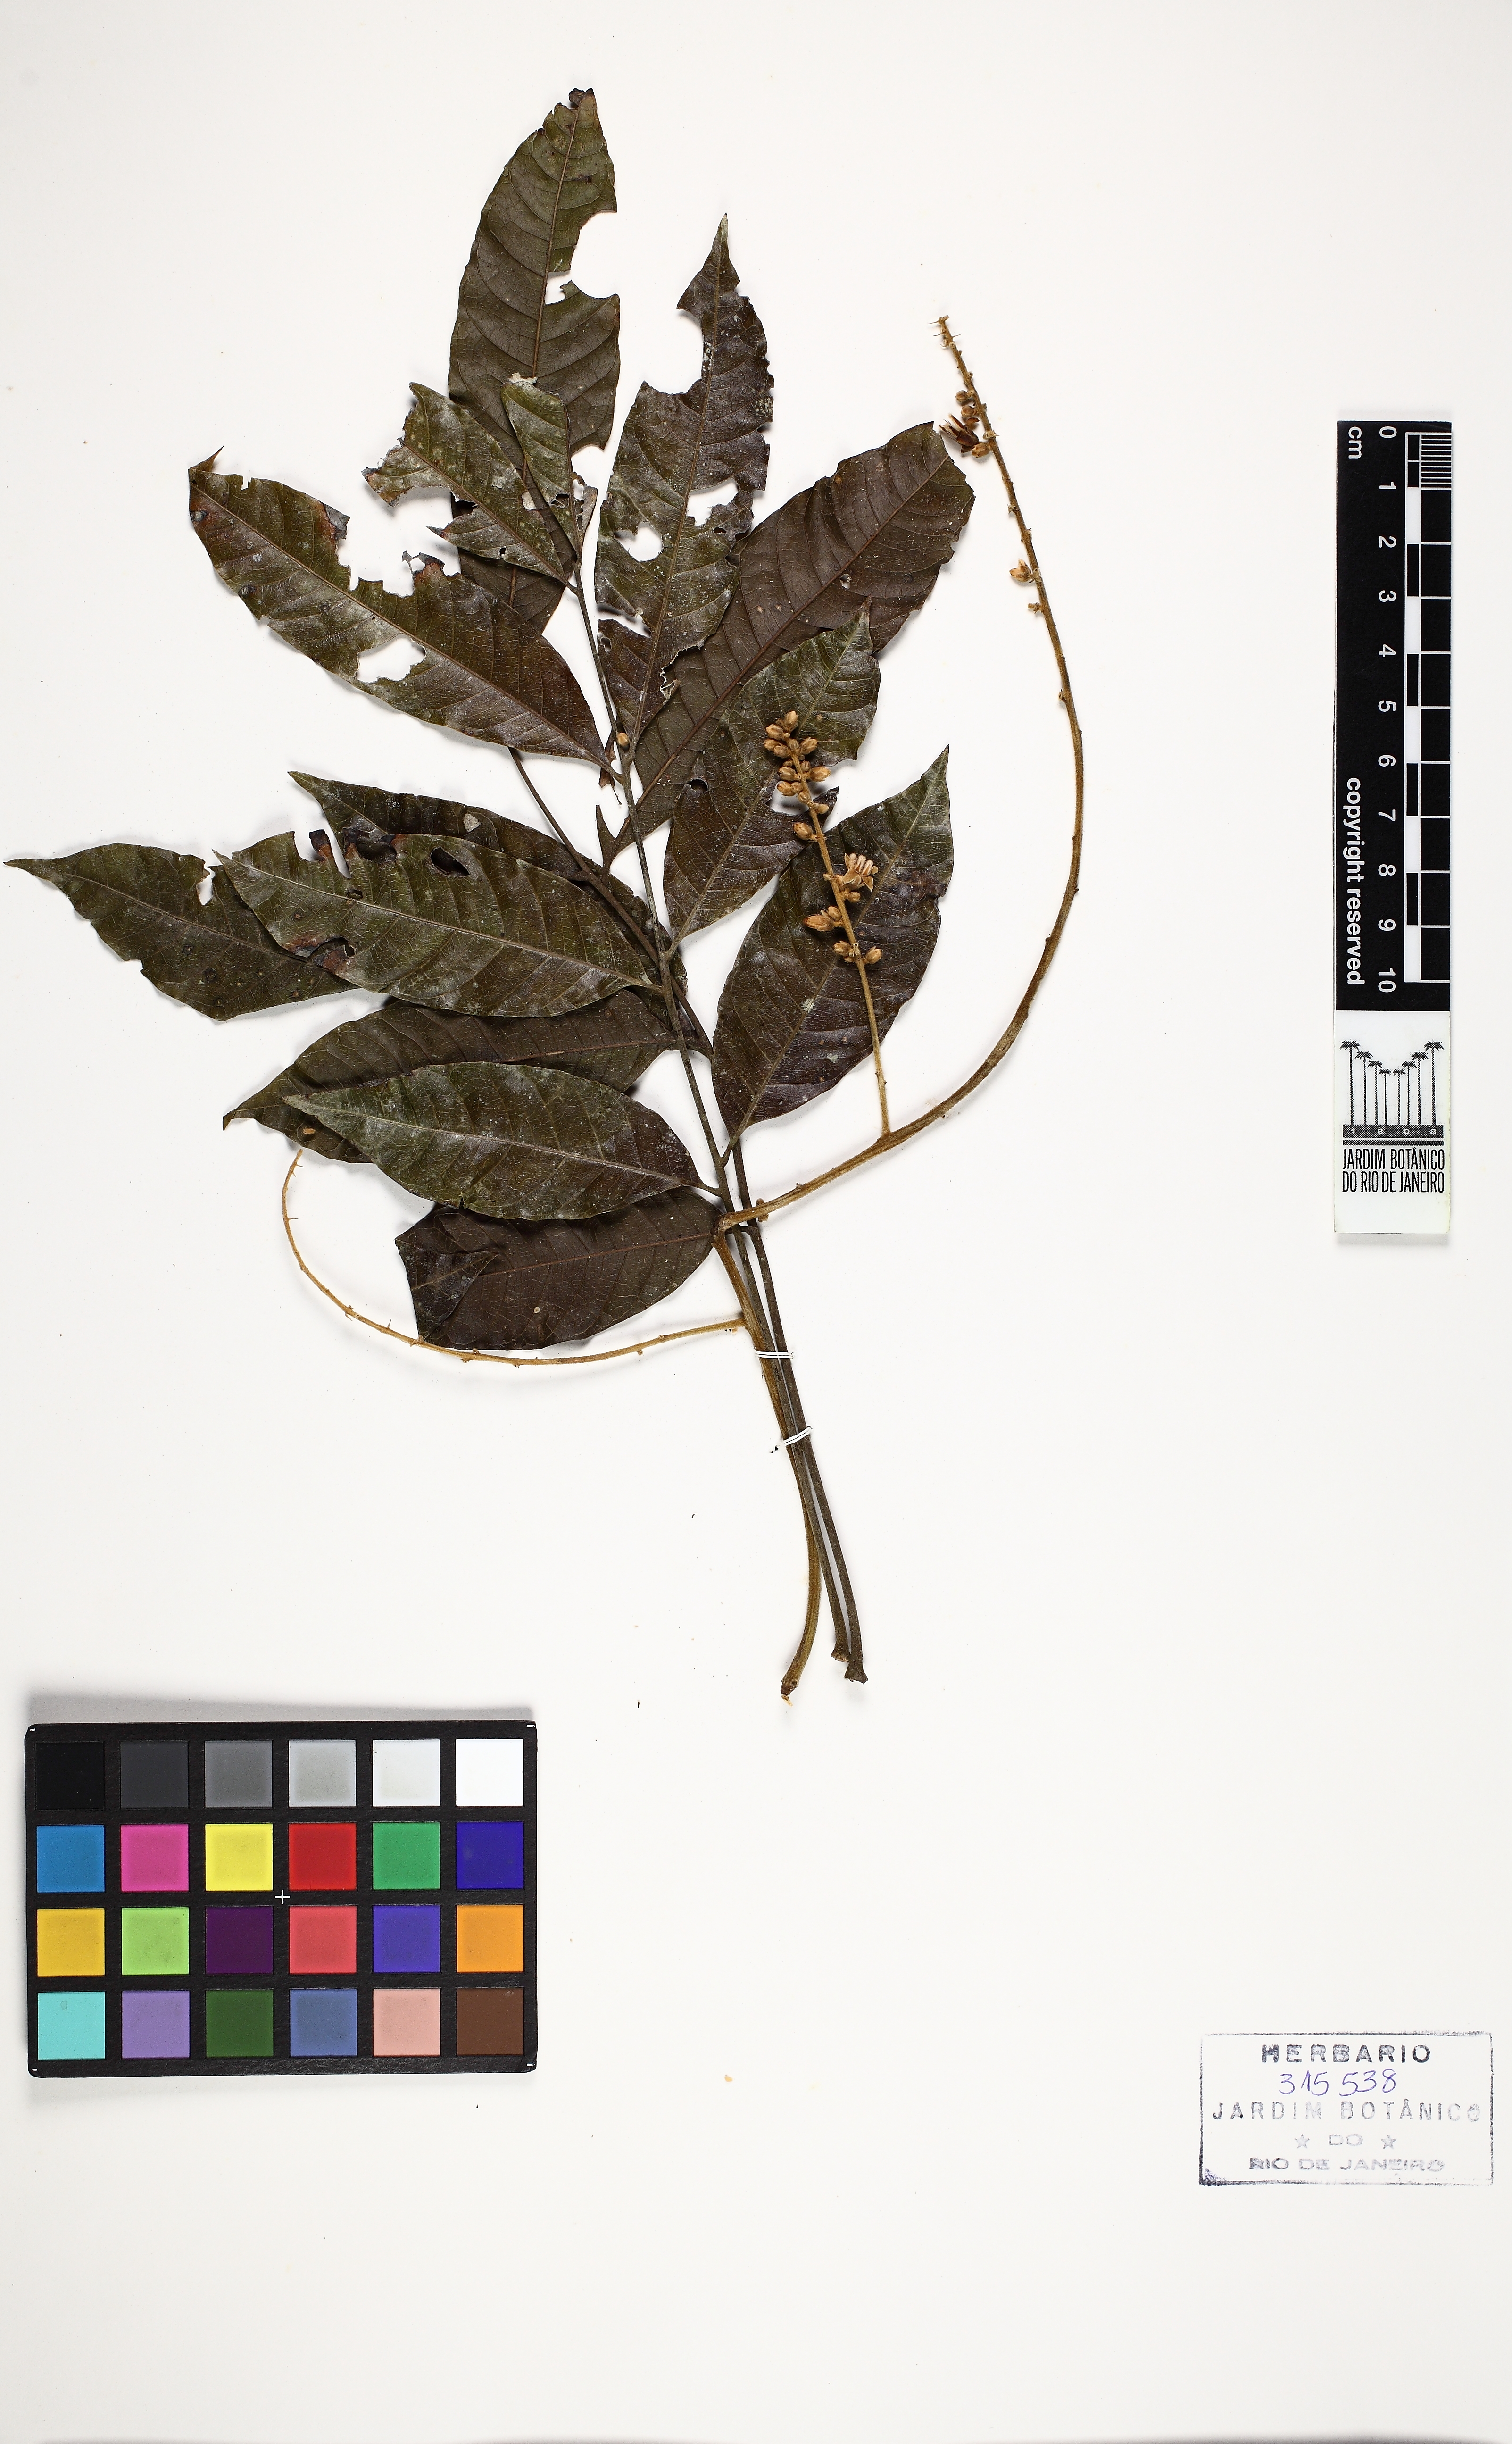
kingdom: Plantae
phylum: Tracheophyta
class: Magnoliopsida
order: Sapindales
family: Sapindaceae
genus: Talisia
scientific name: Talisia hemidasya
